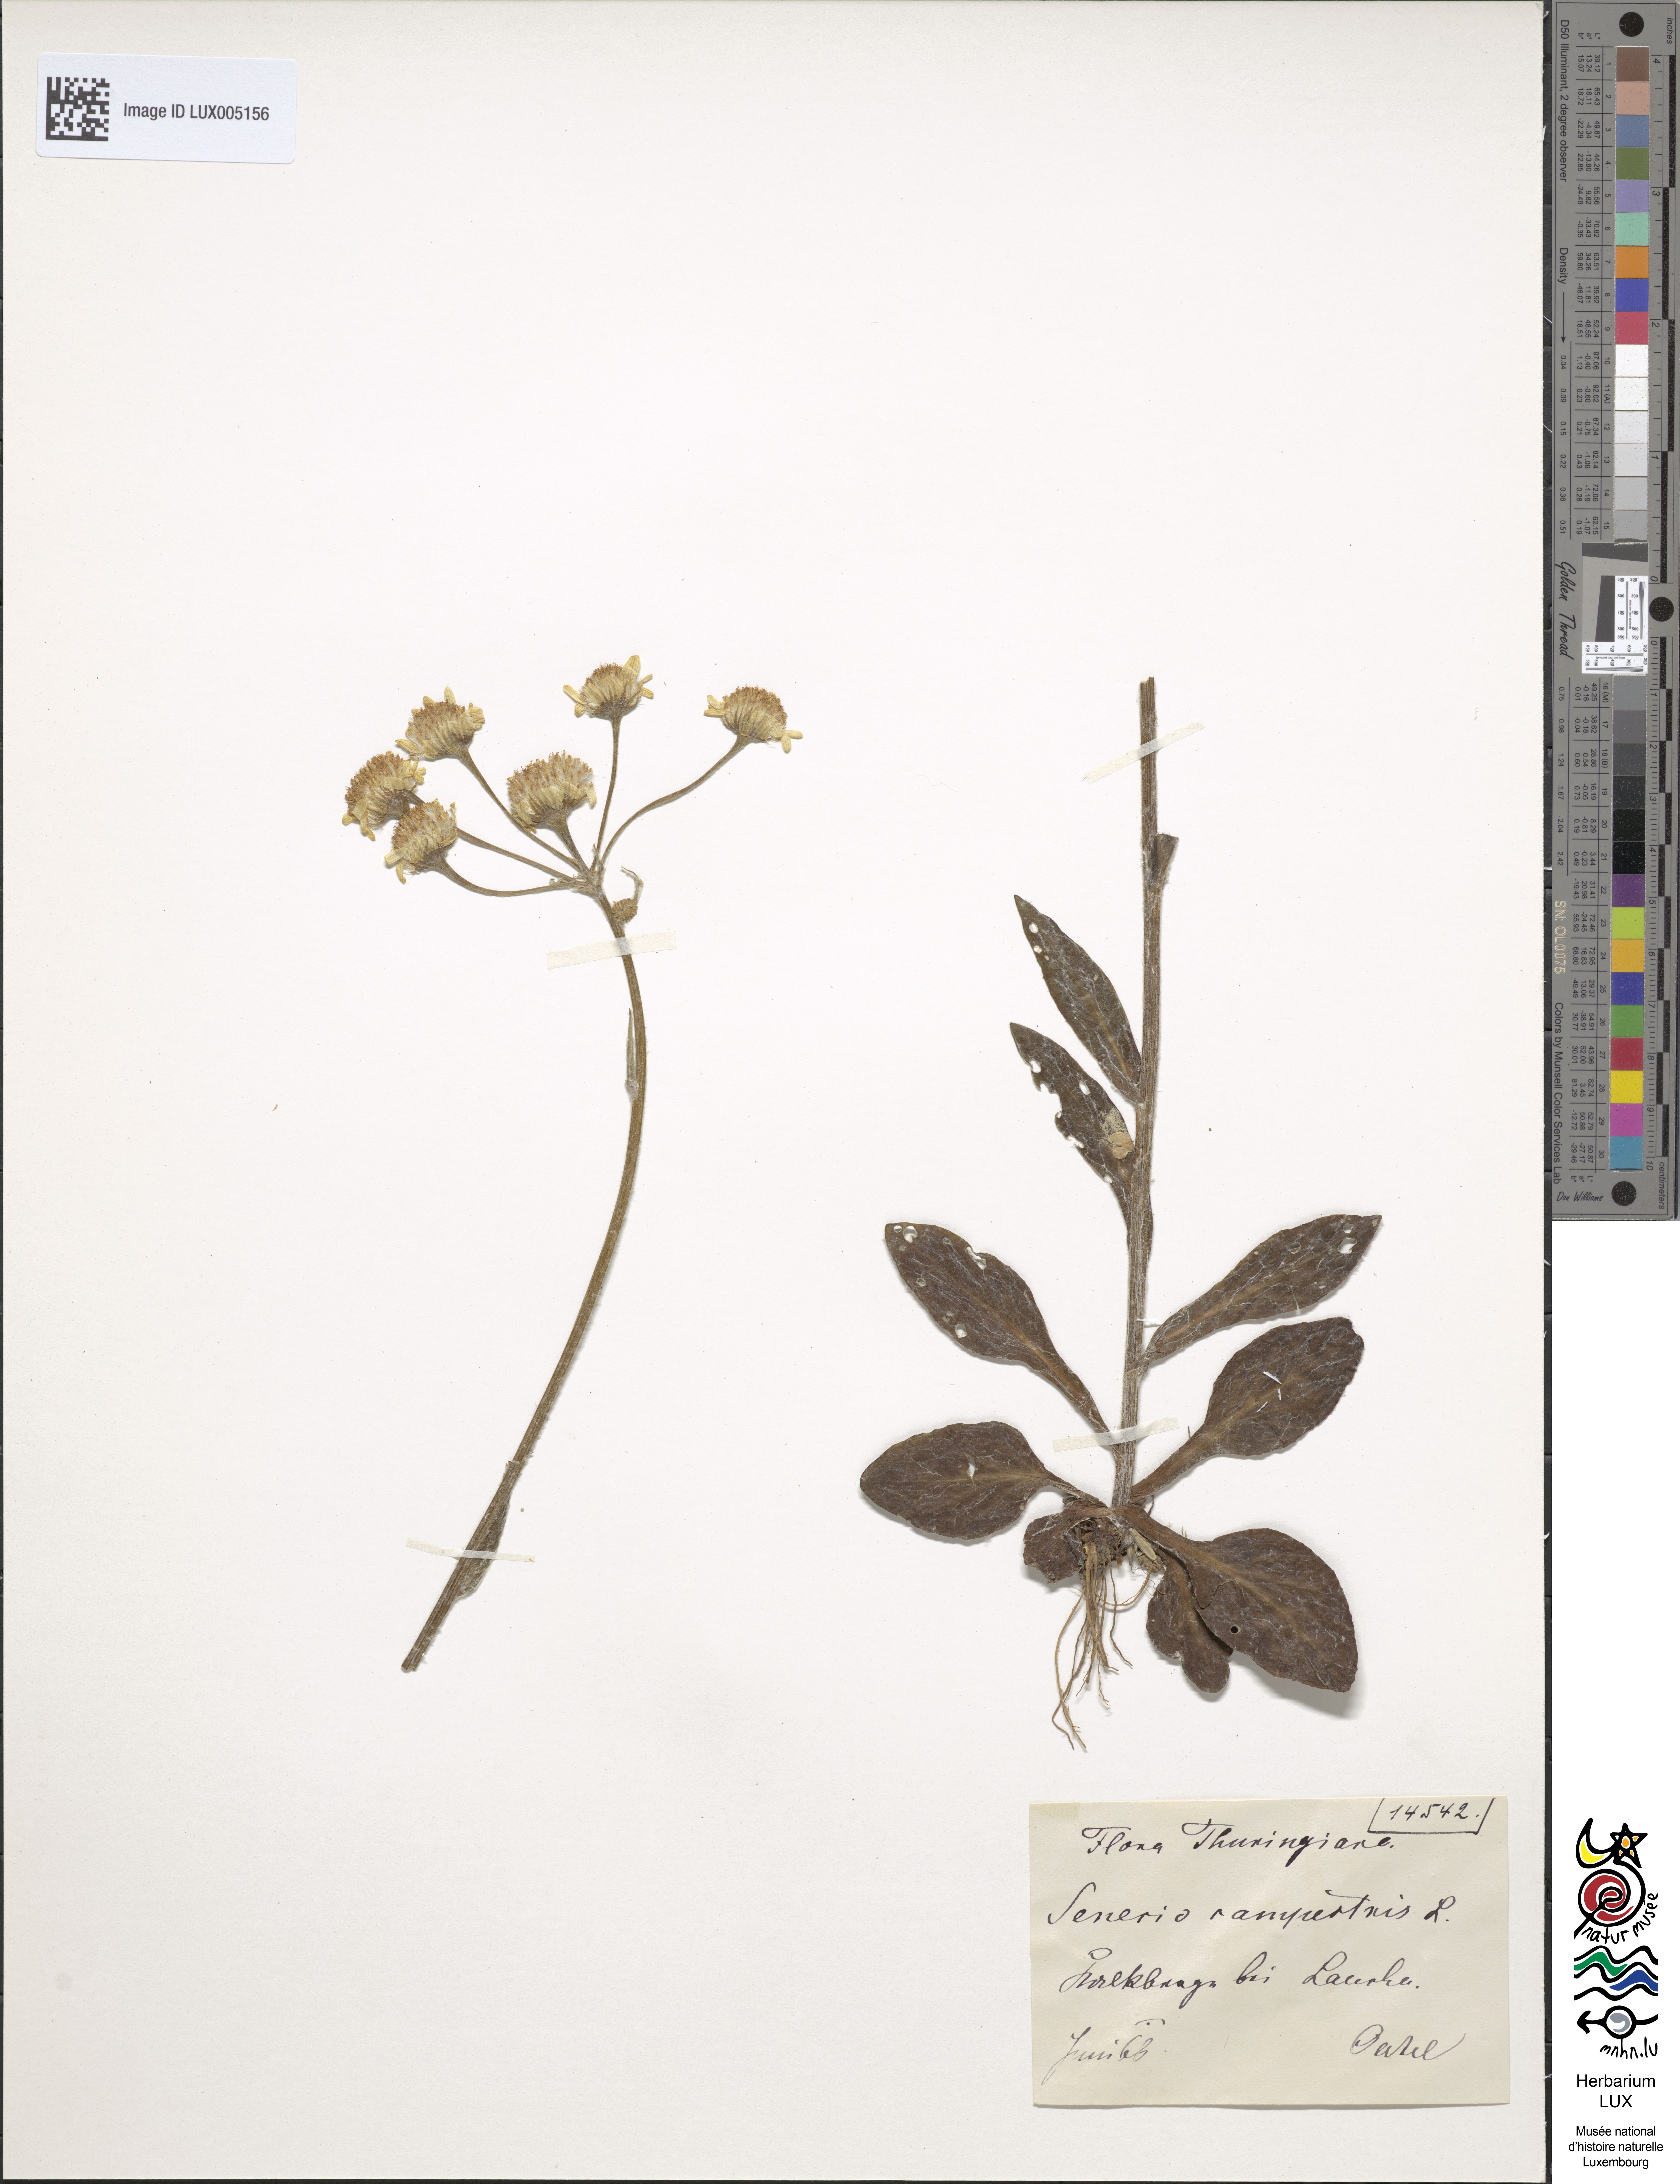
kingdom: Plantae
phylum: Tracheophyta
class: Magnoliopsida
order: Asterales
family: Asteraceae
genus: Tephroseris
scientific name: Tephroseris integrifolia
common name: Field fleawort
